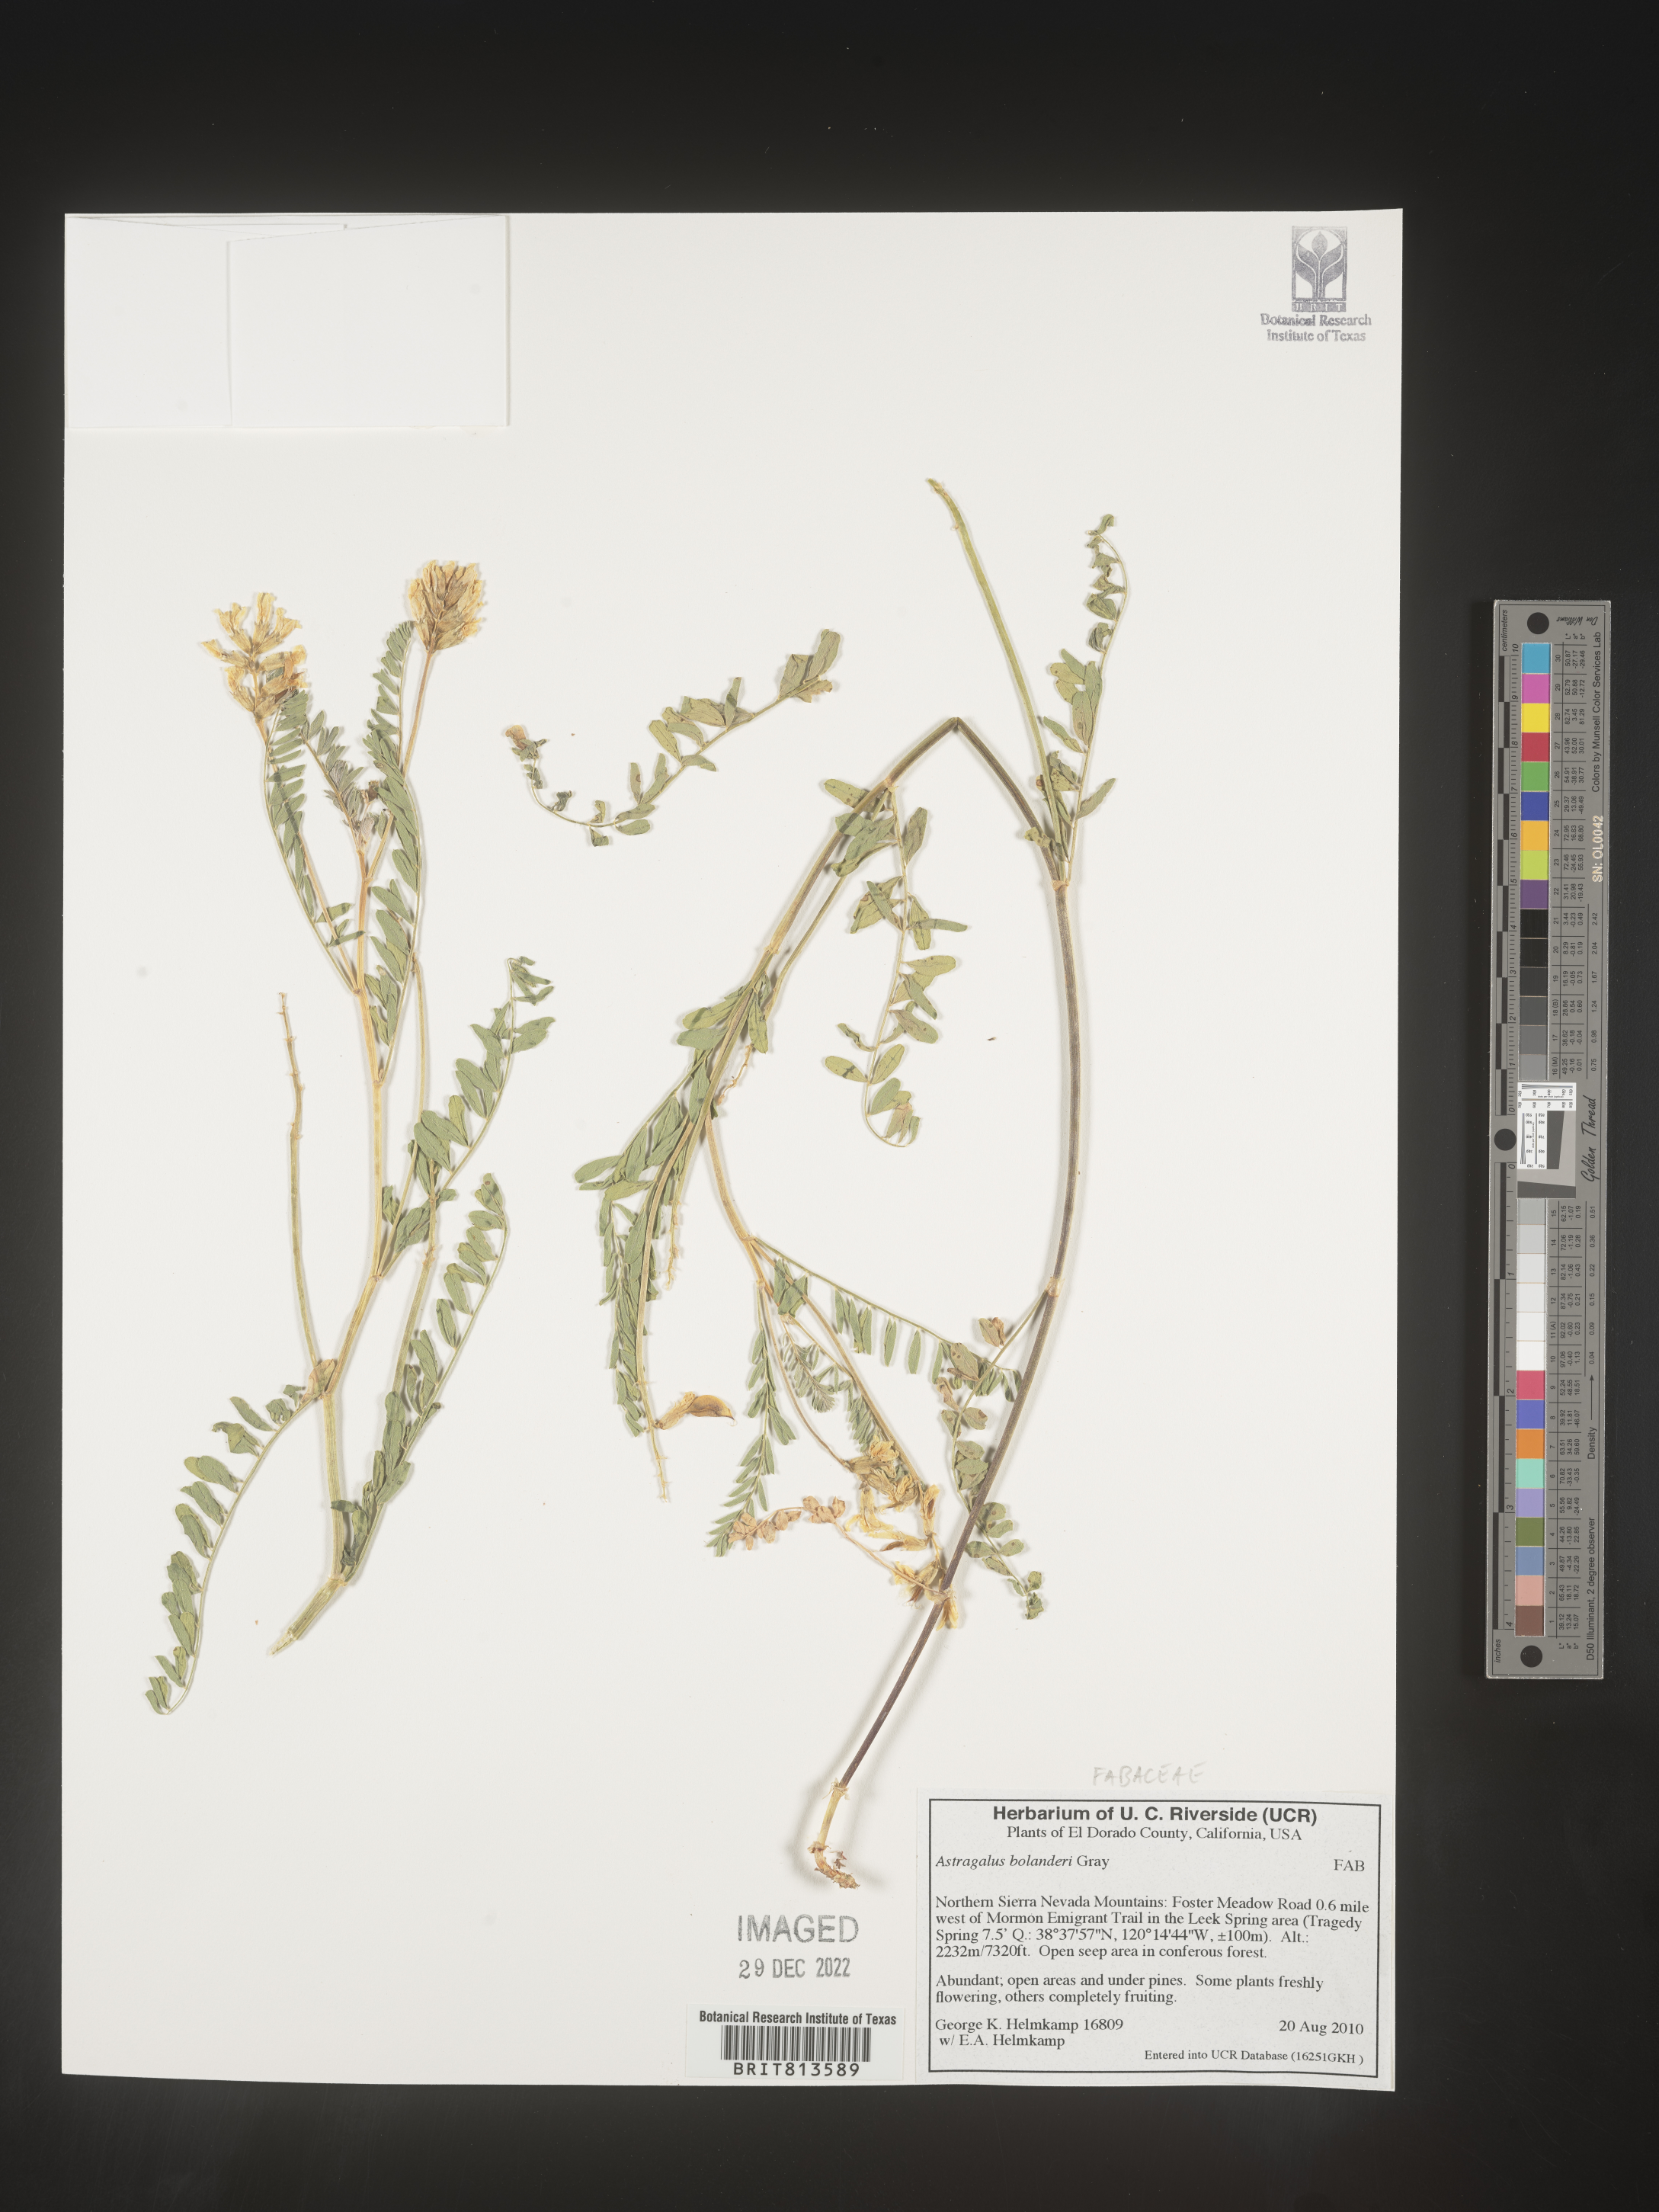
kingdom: Plantae
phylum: Tracheophyta
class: Magnoliopsida
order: Fabales
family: Fabaceae
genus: Astragalus
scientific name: Astragalus
